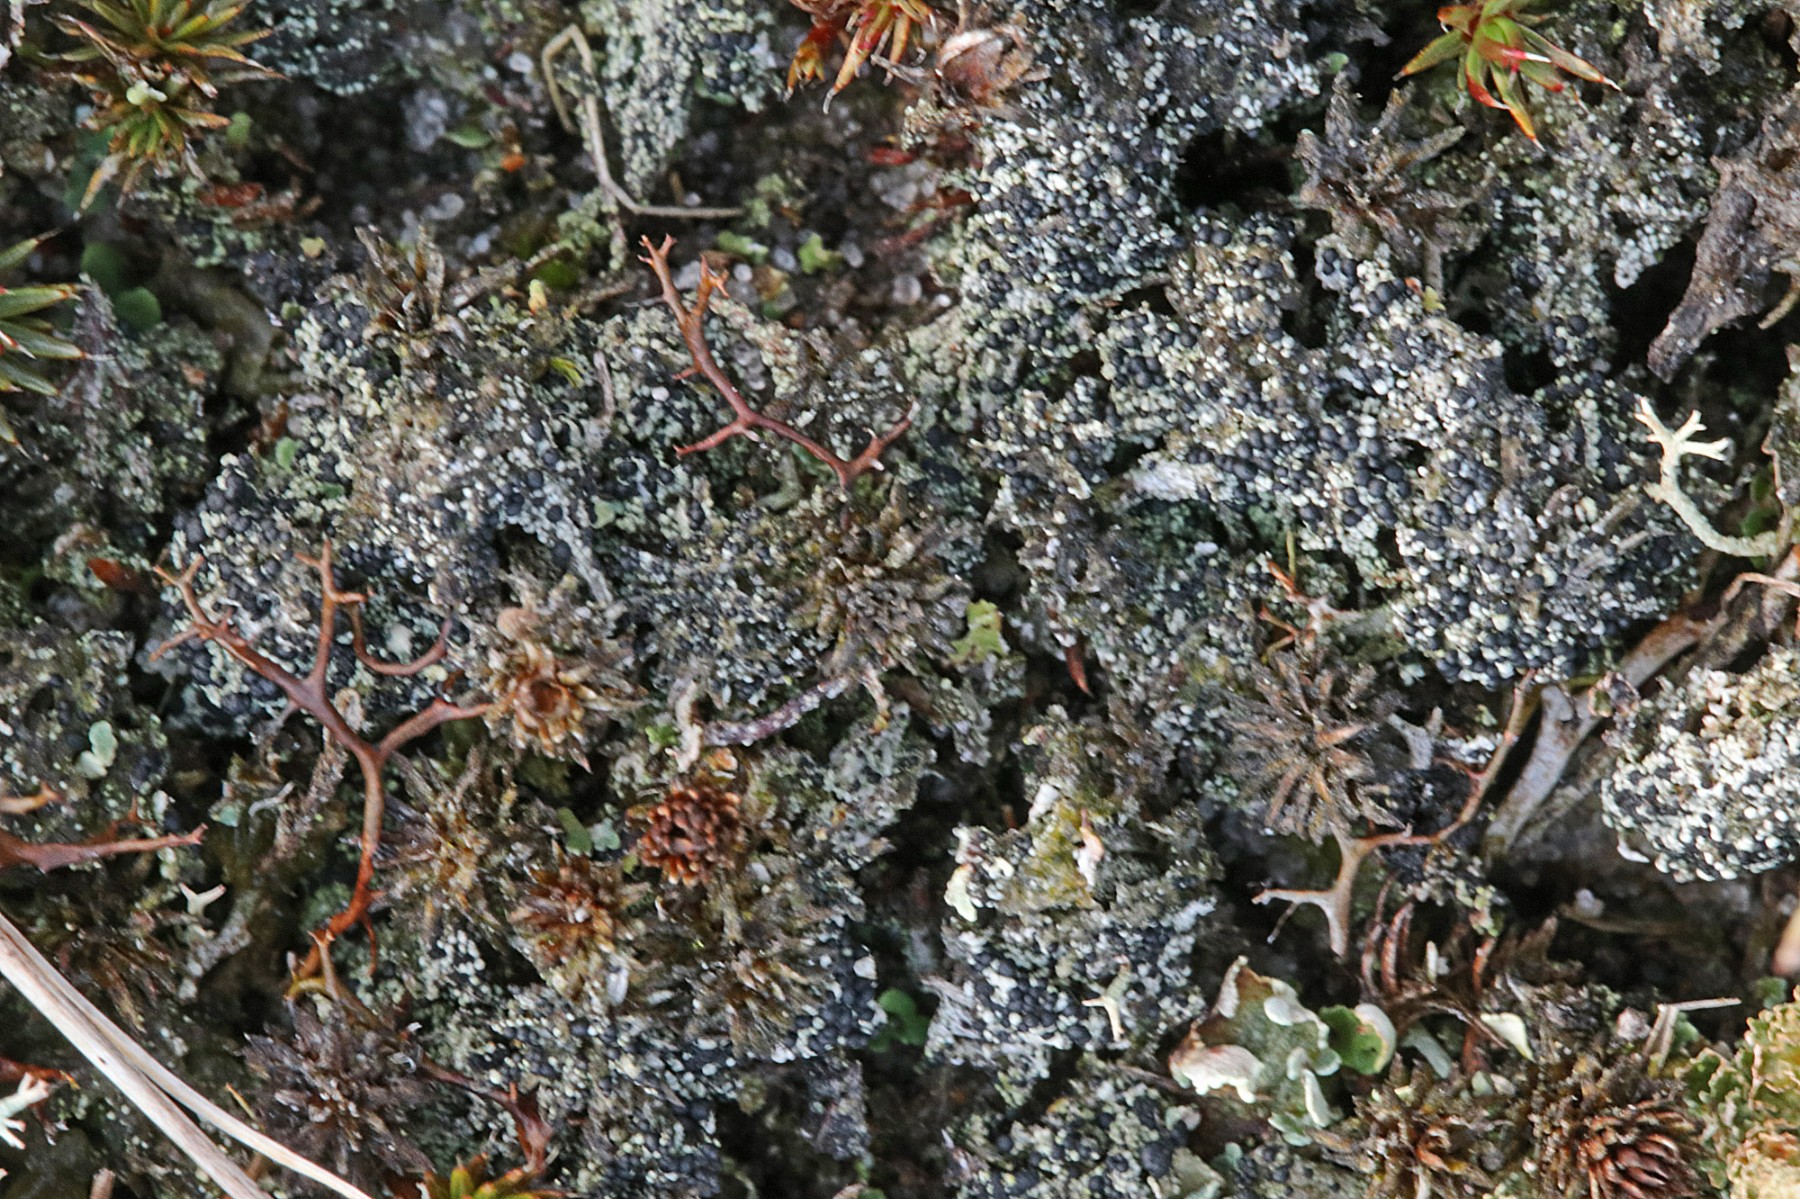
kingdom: Fungi
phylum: Ascomycota
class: Lecanoromycetes
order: Lecanorales
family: Byssolomataceae
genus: Micarea
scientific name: Micarea lignaria
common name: tørve-knaplav
